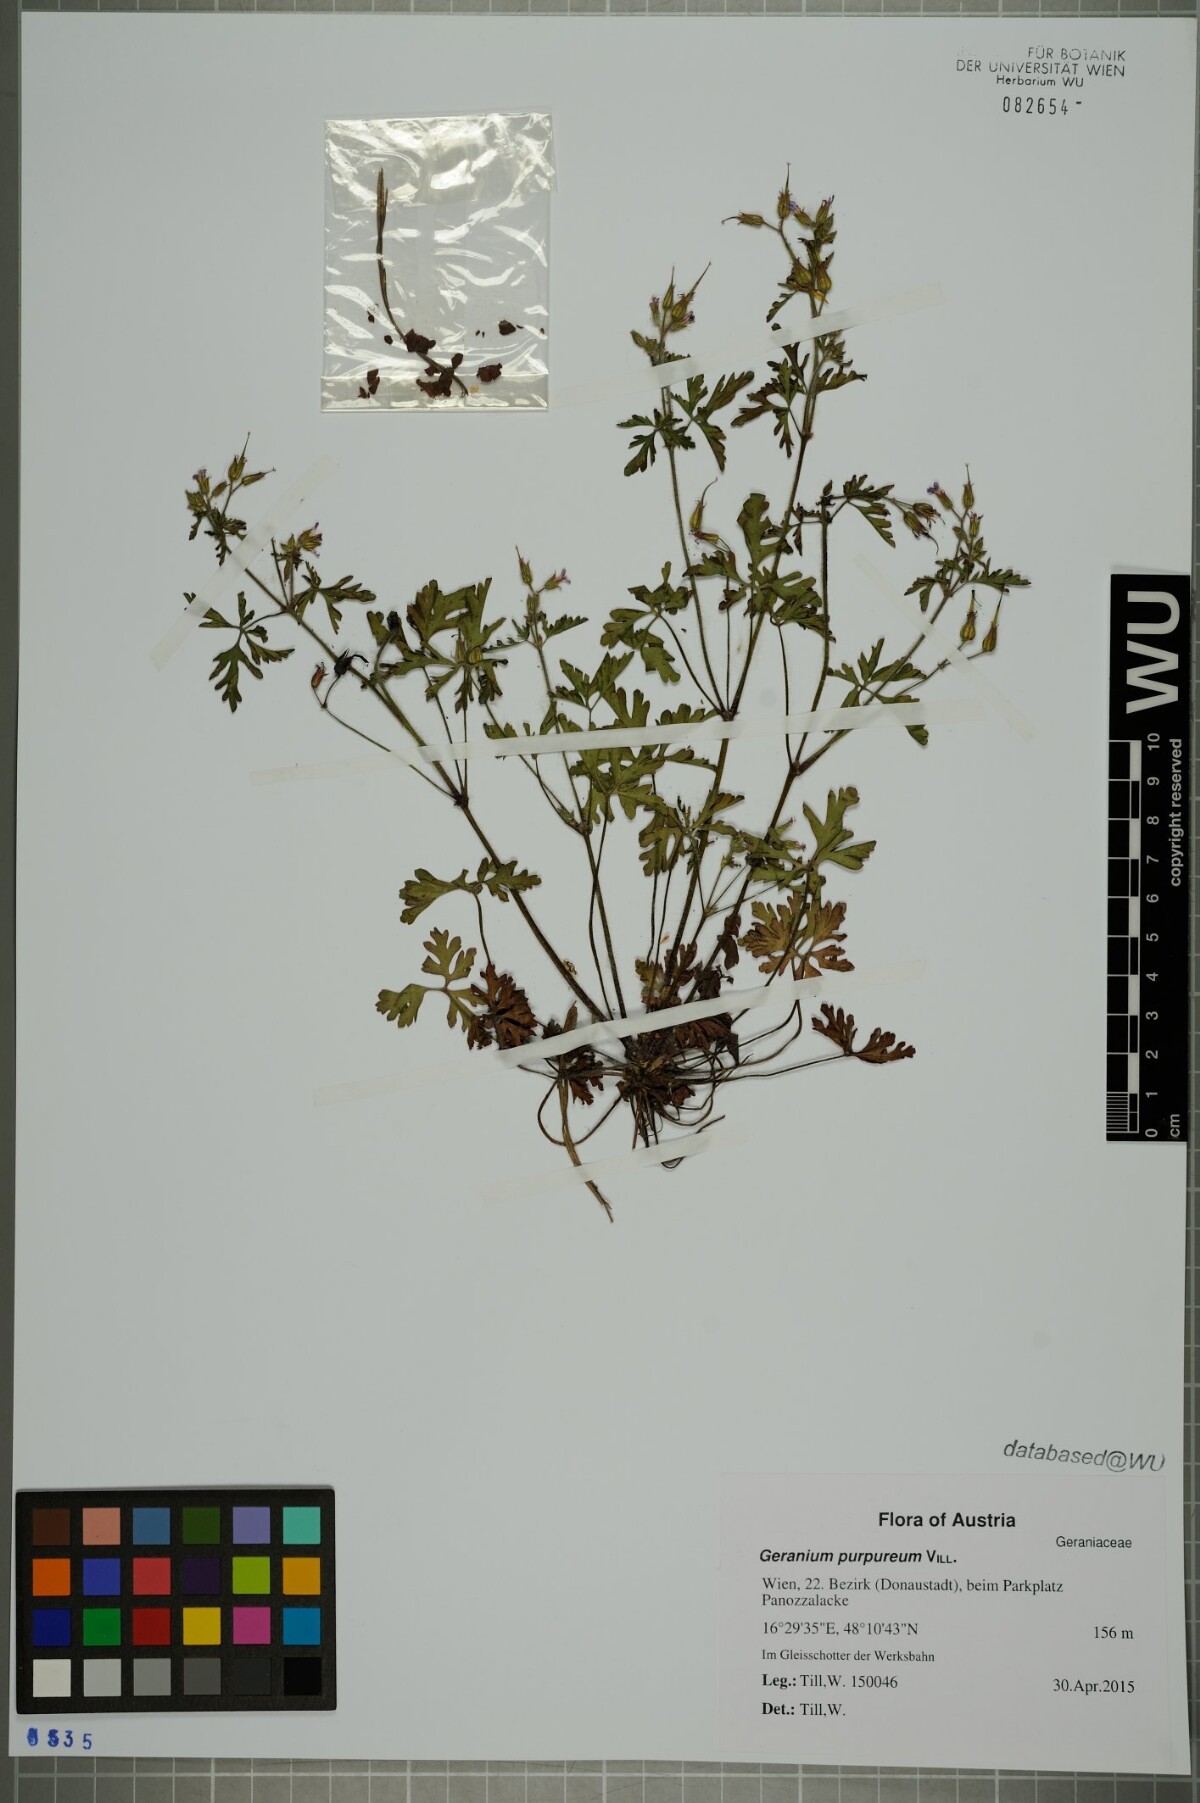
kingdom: Plantae
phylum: Tracheophyta
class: Magnoliopsida
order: Geraniales
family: Geraniaceae
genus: Geranium
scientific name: Geranium purpureum
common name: Little-robin
